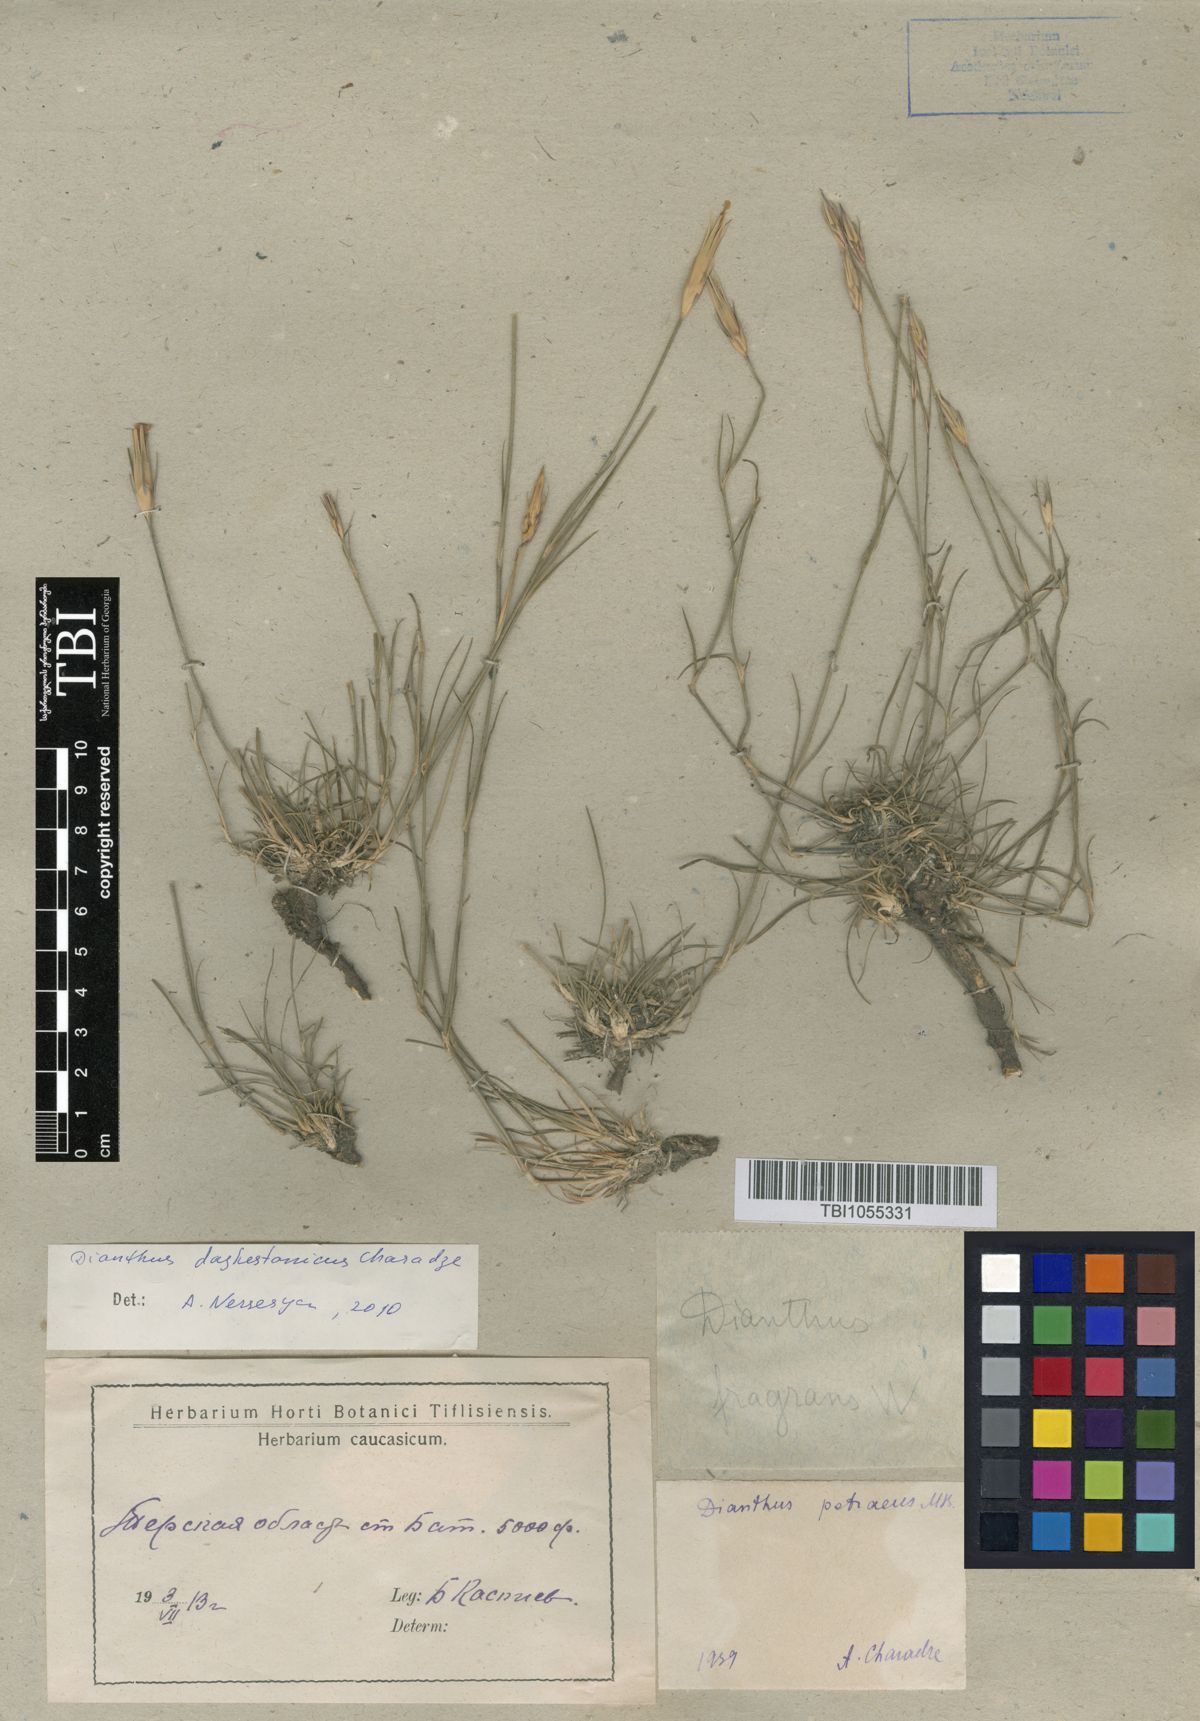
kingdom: Plantae
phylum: Tracheophyta
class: Magnoliopsida
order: Caryophyllales
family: Caryophyllaceae
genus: Dianthus
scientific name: Dianthus cretaceus
